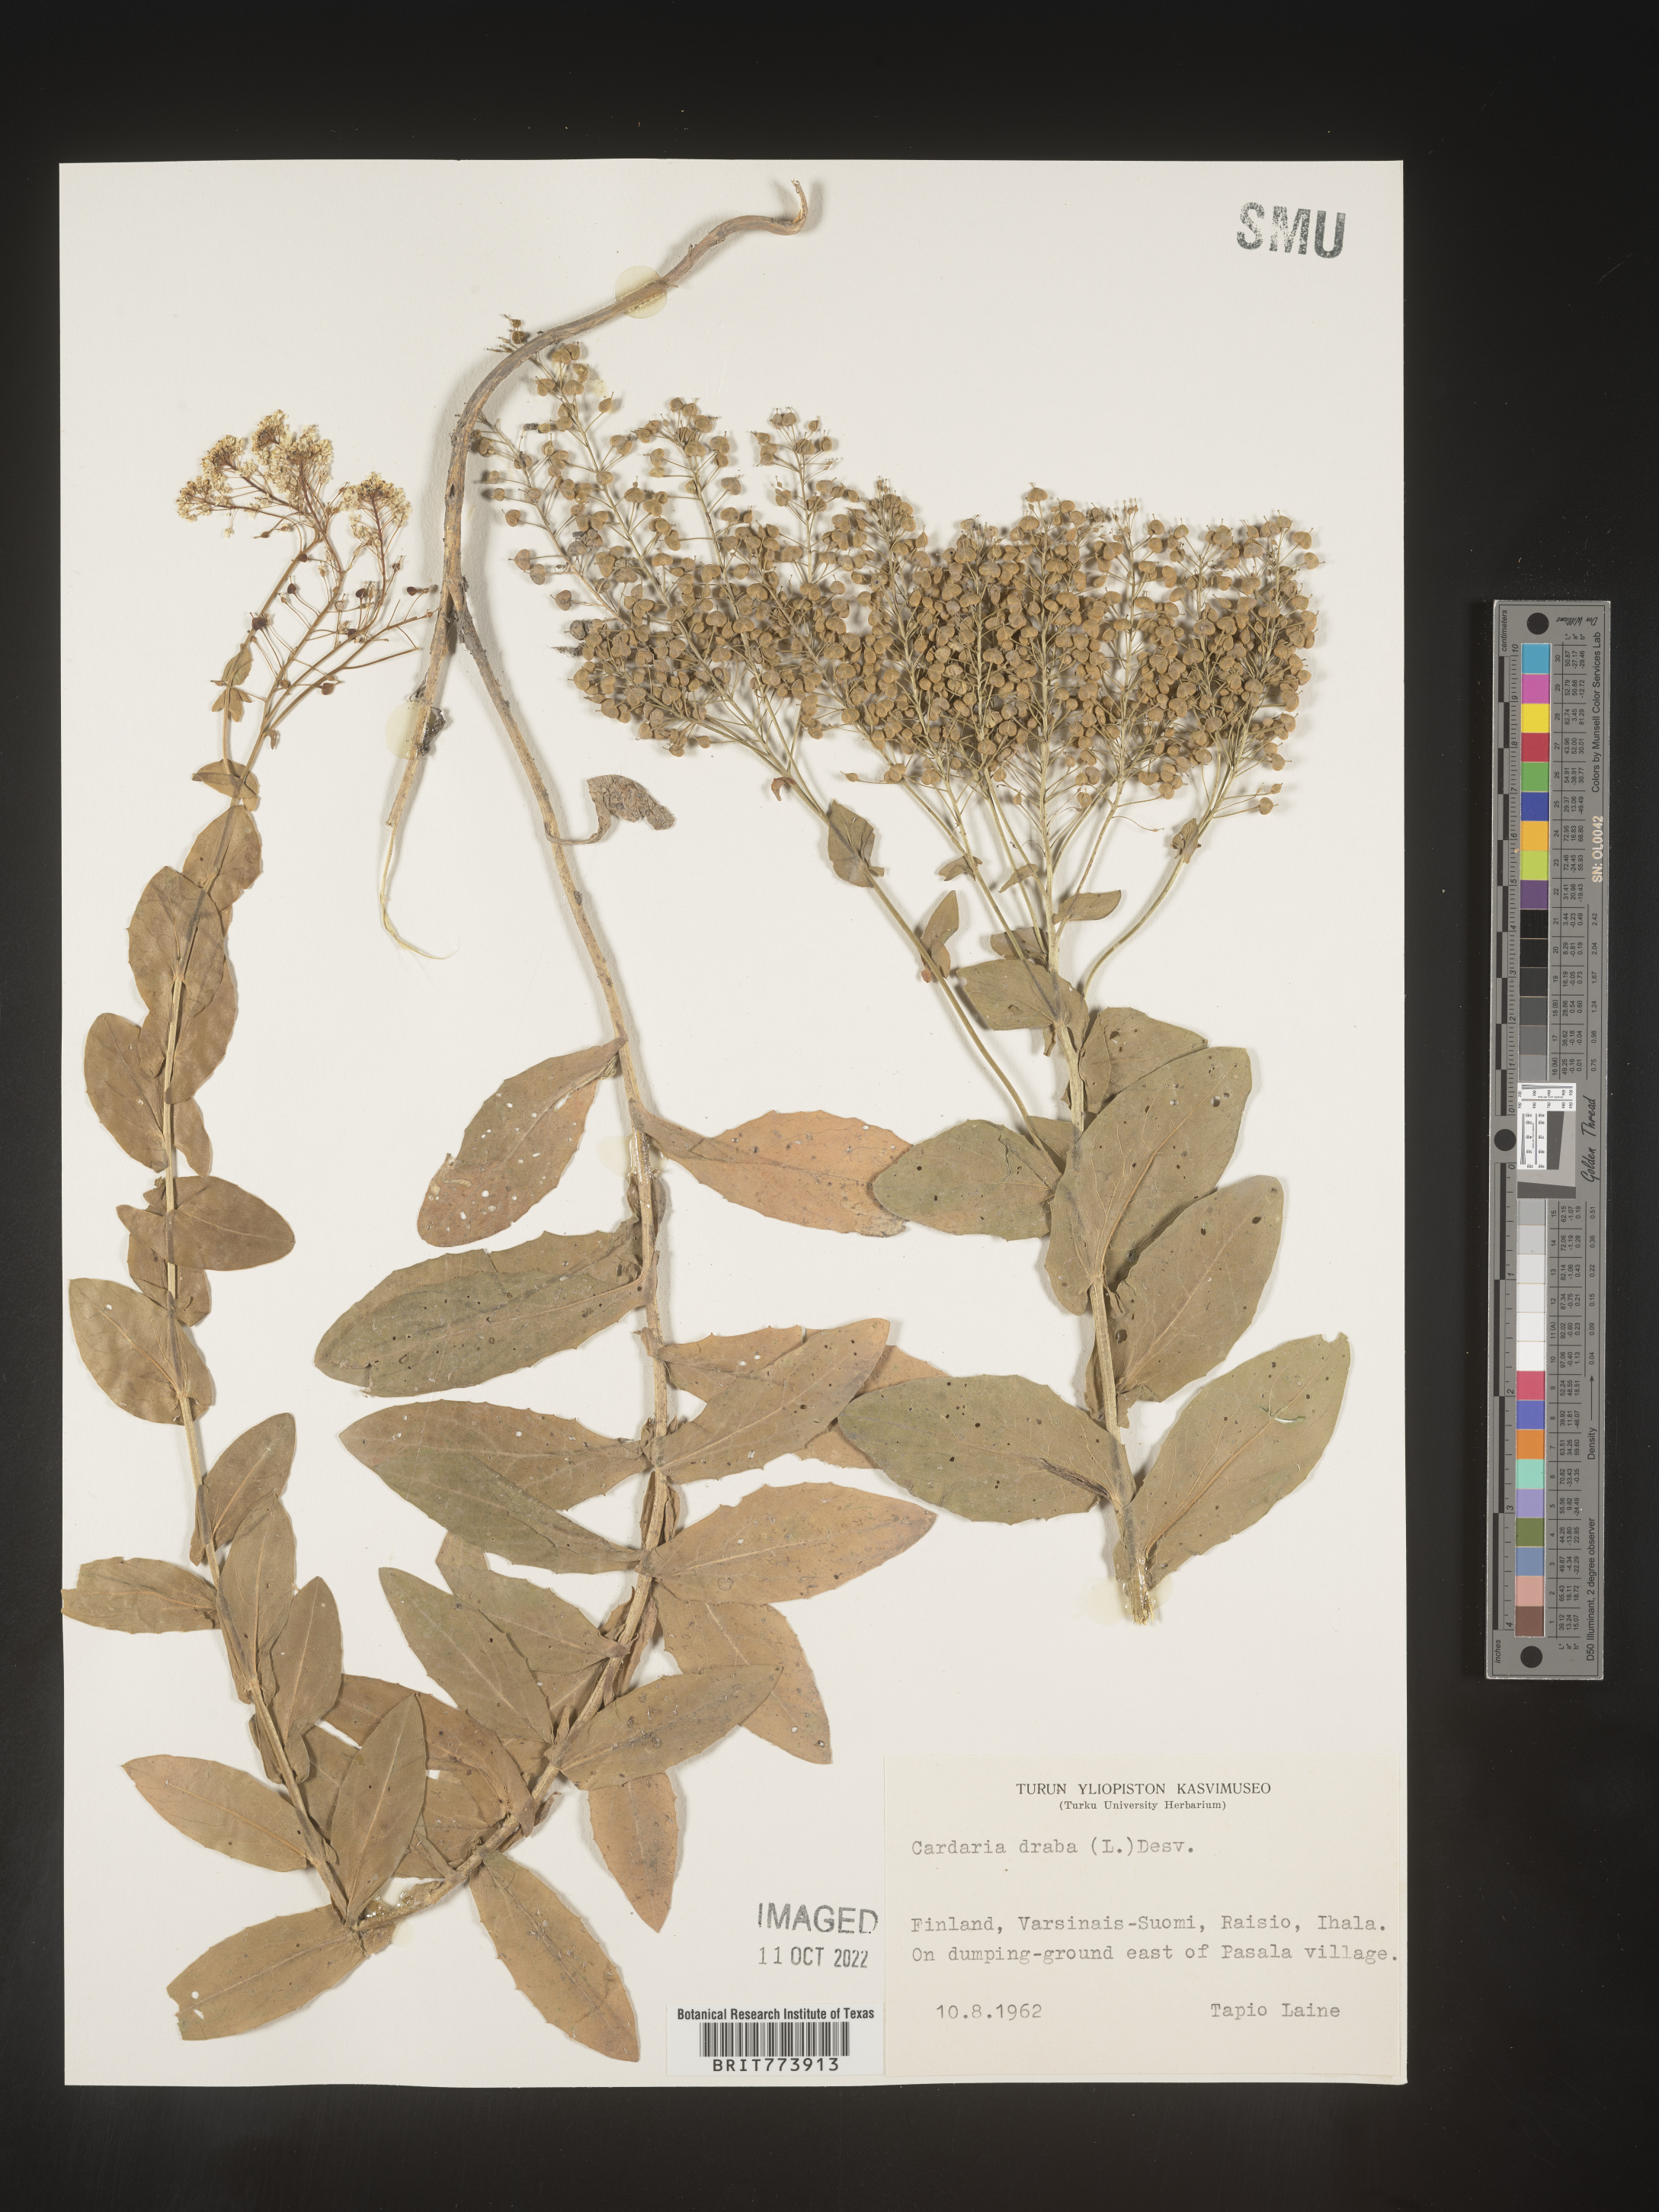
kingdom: Plantae
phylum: Tracheophyta
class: Magnoliopsida
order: Brassicales
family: Brassicaceae
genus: Lepidium
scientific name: Lepidium
